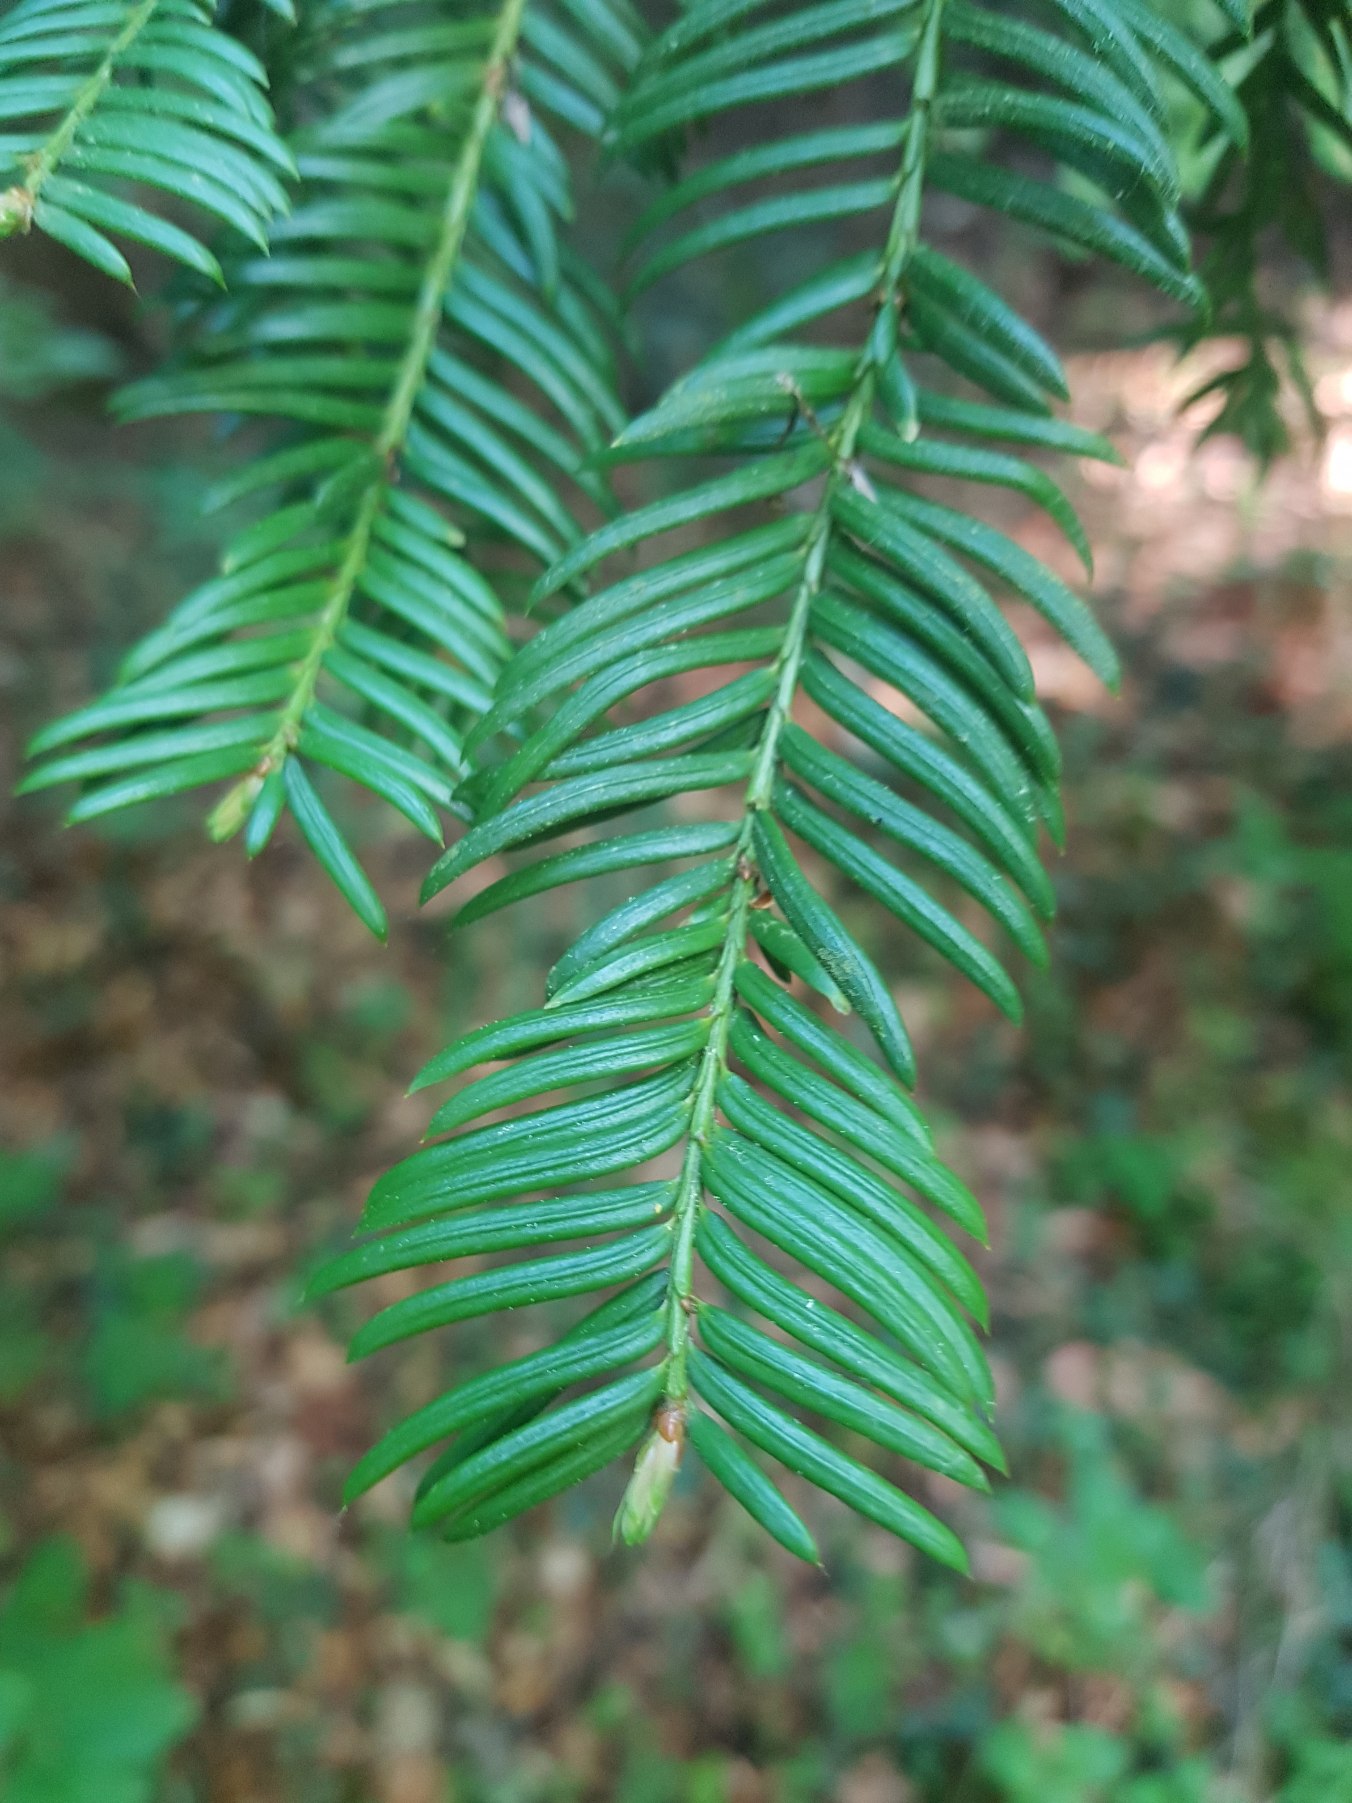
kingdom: Plantae
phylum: Tracheophyta
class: Pinopsida
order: Pinales
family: Taxaceae
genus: Taxus
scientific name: Taxus baccata
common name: Almindelig taks
